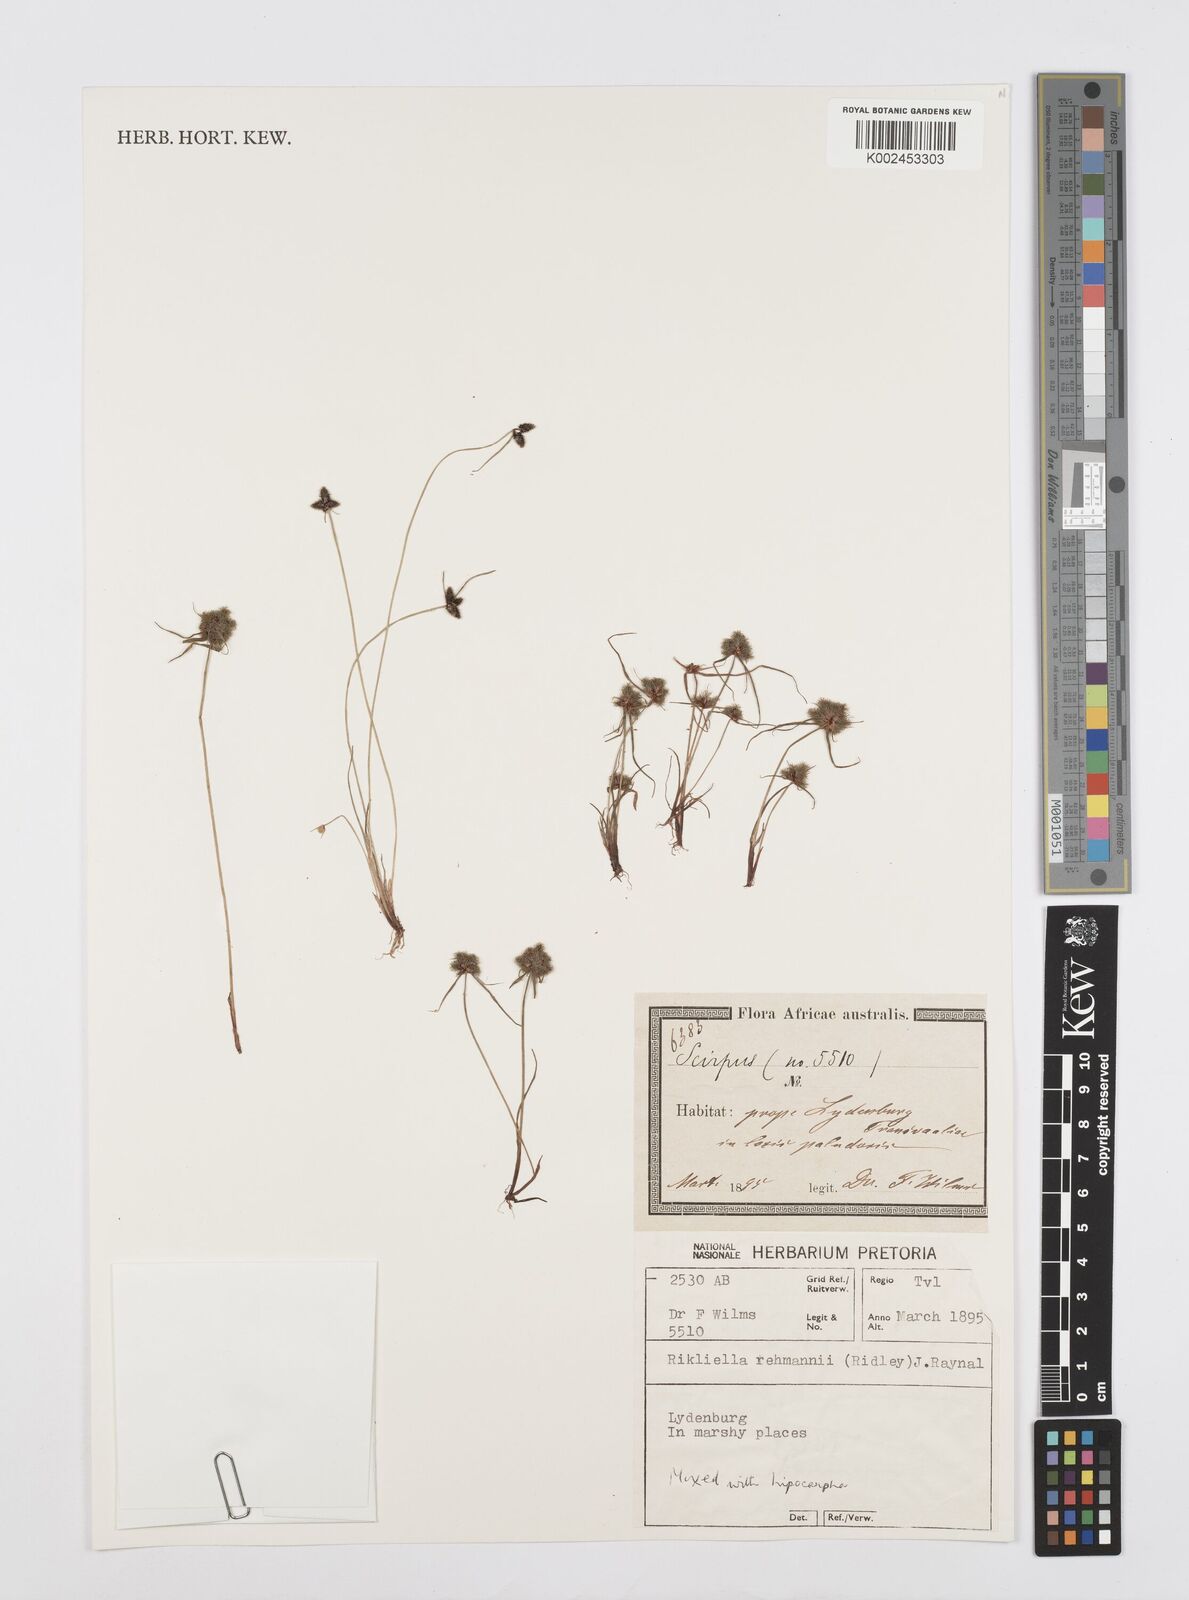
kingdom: Plantae
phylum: Tracheophyta
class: Liliopsida
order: Poales
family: Cyperaceae
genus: Cyperus
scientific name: Cyperus sanguinolentus
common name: Purpleglume flatsedge
